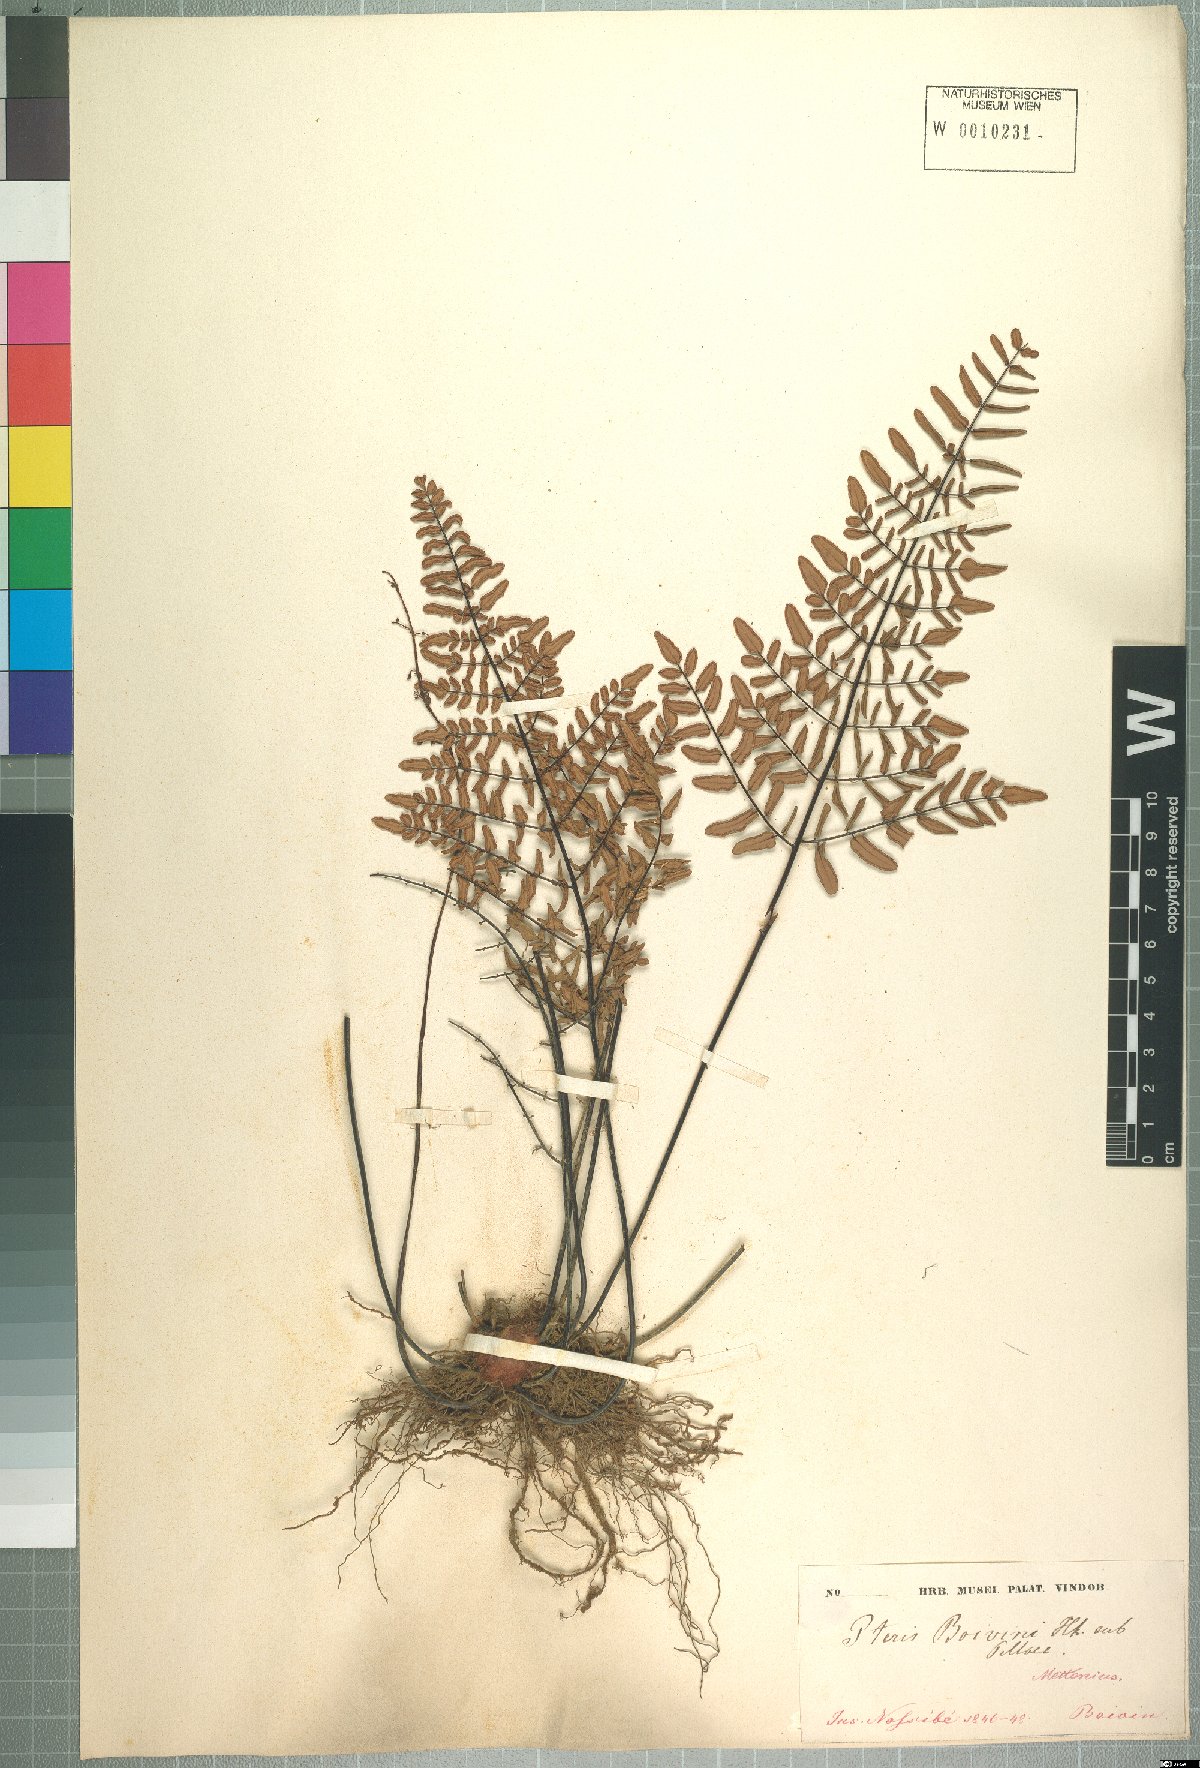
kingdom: Plantae
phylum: Tracheophyta
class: Polypodiopsida
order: Polypodiales
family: Pteridaceae
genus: Pellaea
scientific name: Pellaea boivinii
